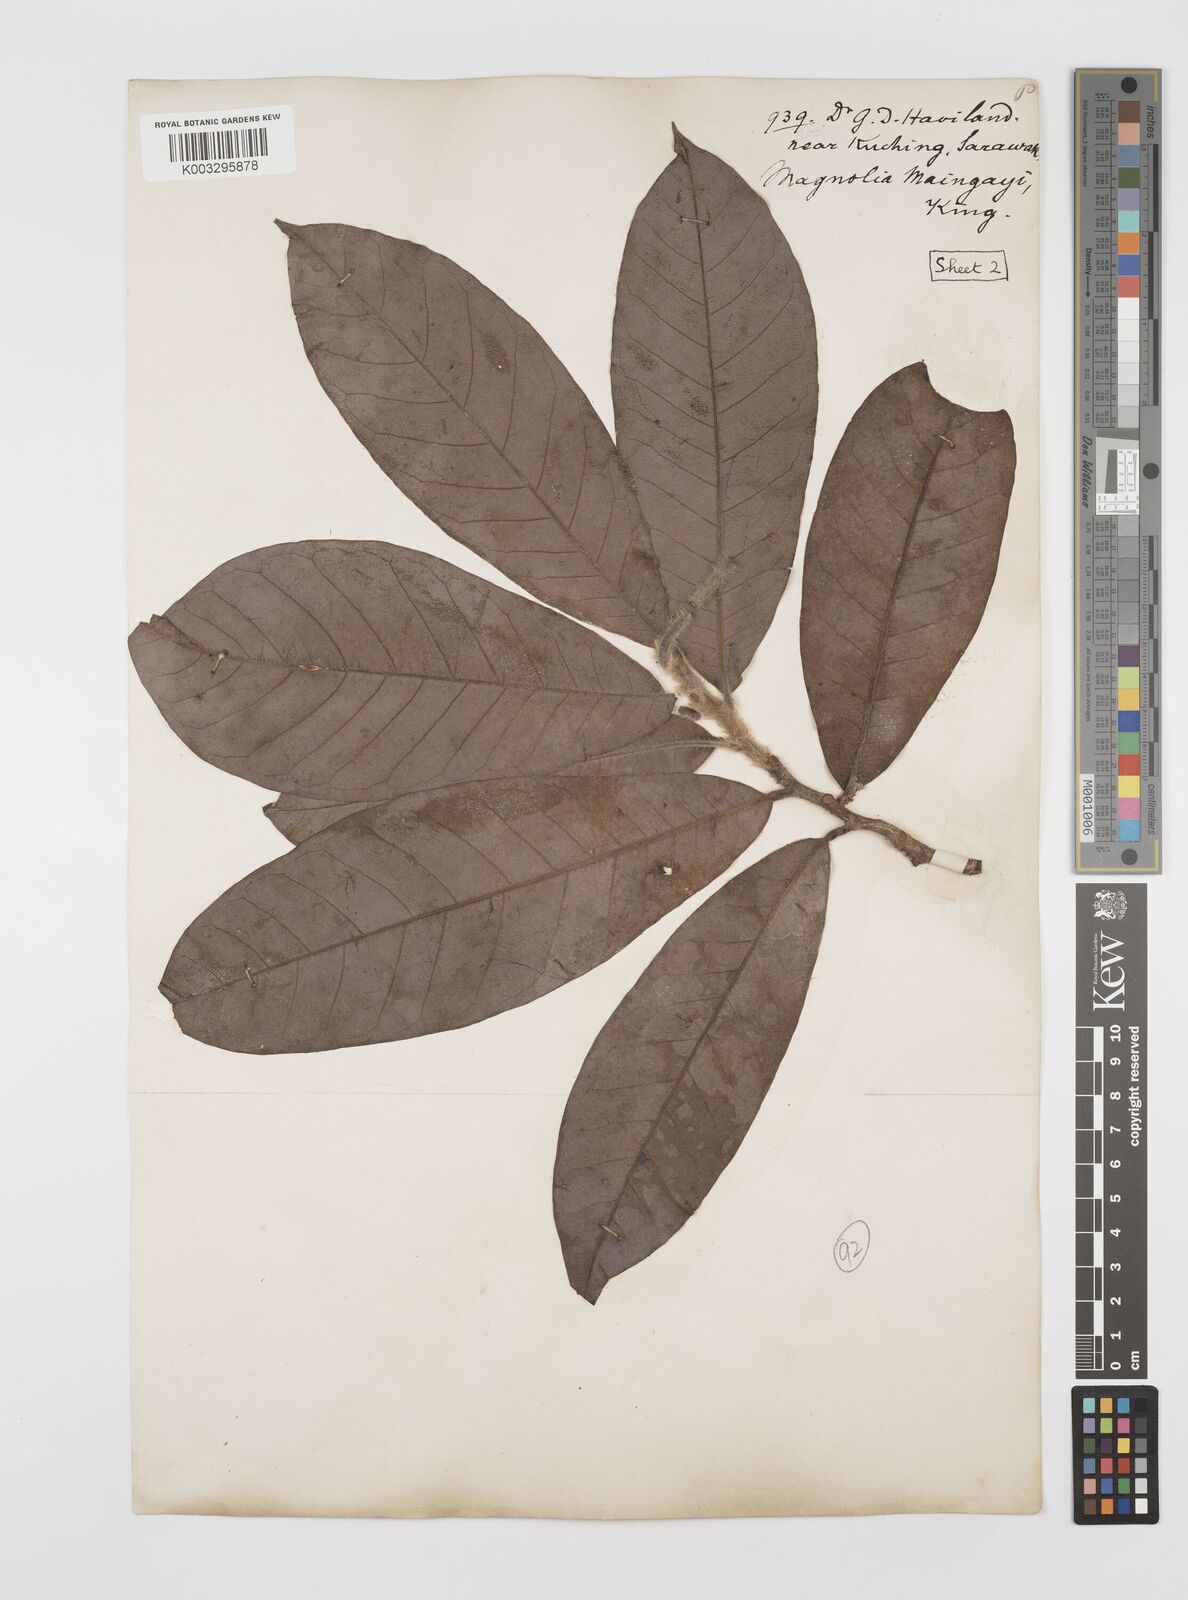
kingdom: Plantae
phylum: Tracheophyta
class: Magnoliopsida
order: Magnoliales
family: Magnoliaceae
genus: Magnolia
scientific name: Magnolia macklottii
